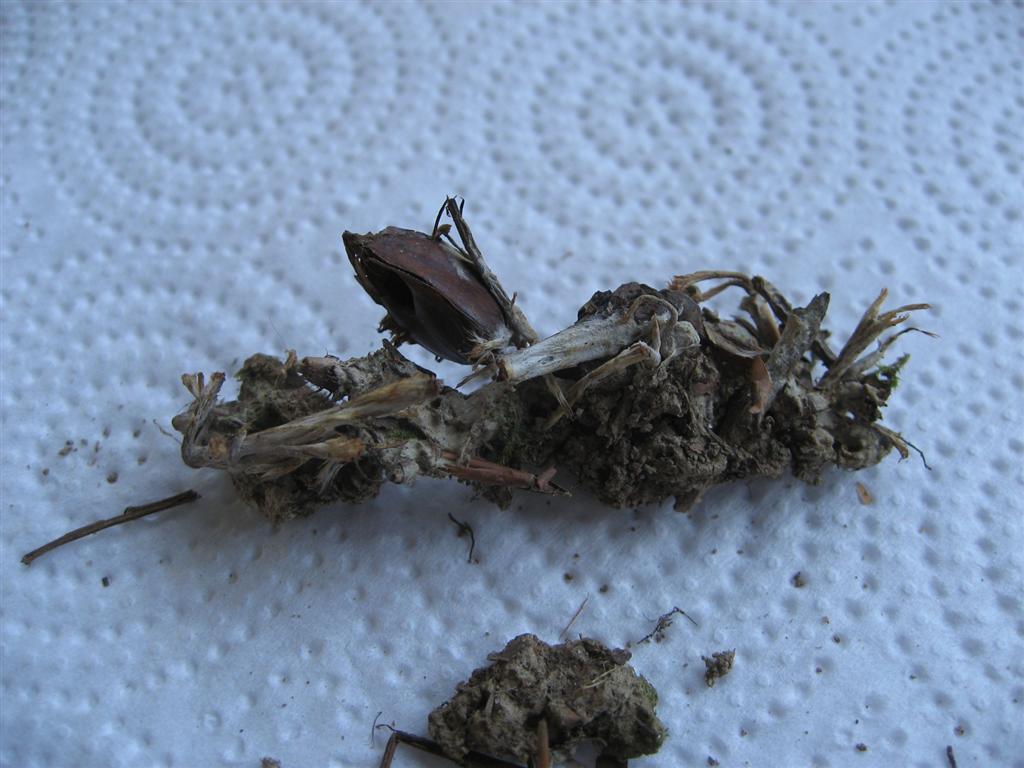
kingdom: Fungi
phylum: Basidiomycota
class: Agaricomycetes
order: Thelephorales
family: Thelephoraceae
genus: Thelephora
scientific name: Thelephora penicillata
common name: fladtrådt frynsesvamp
